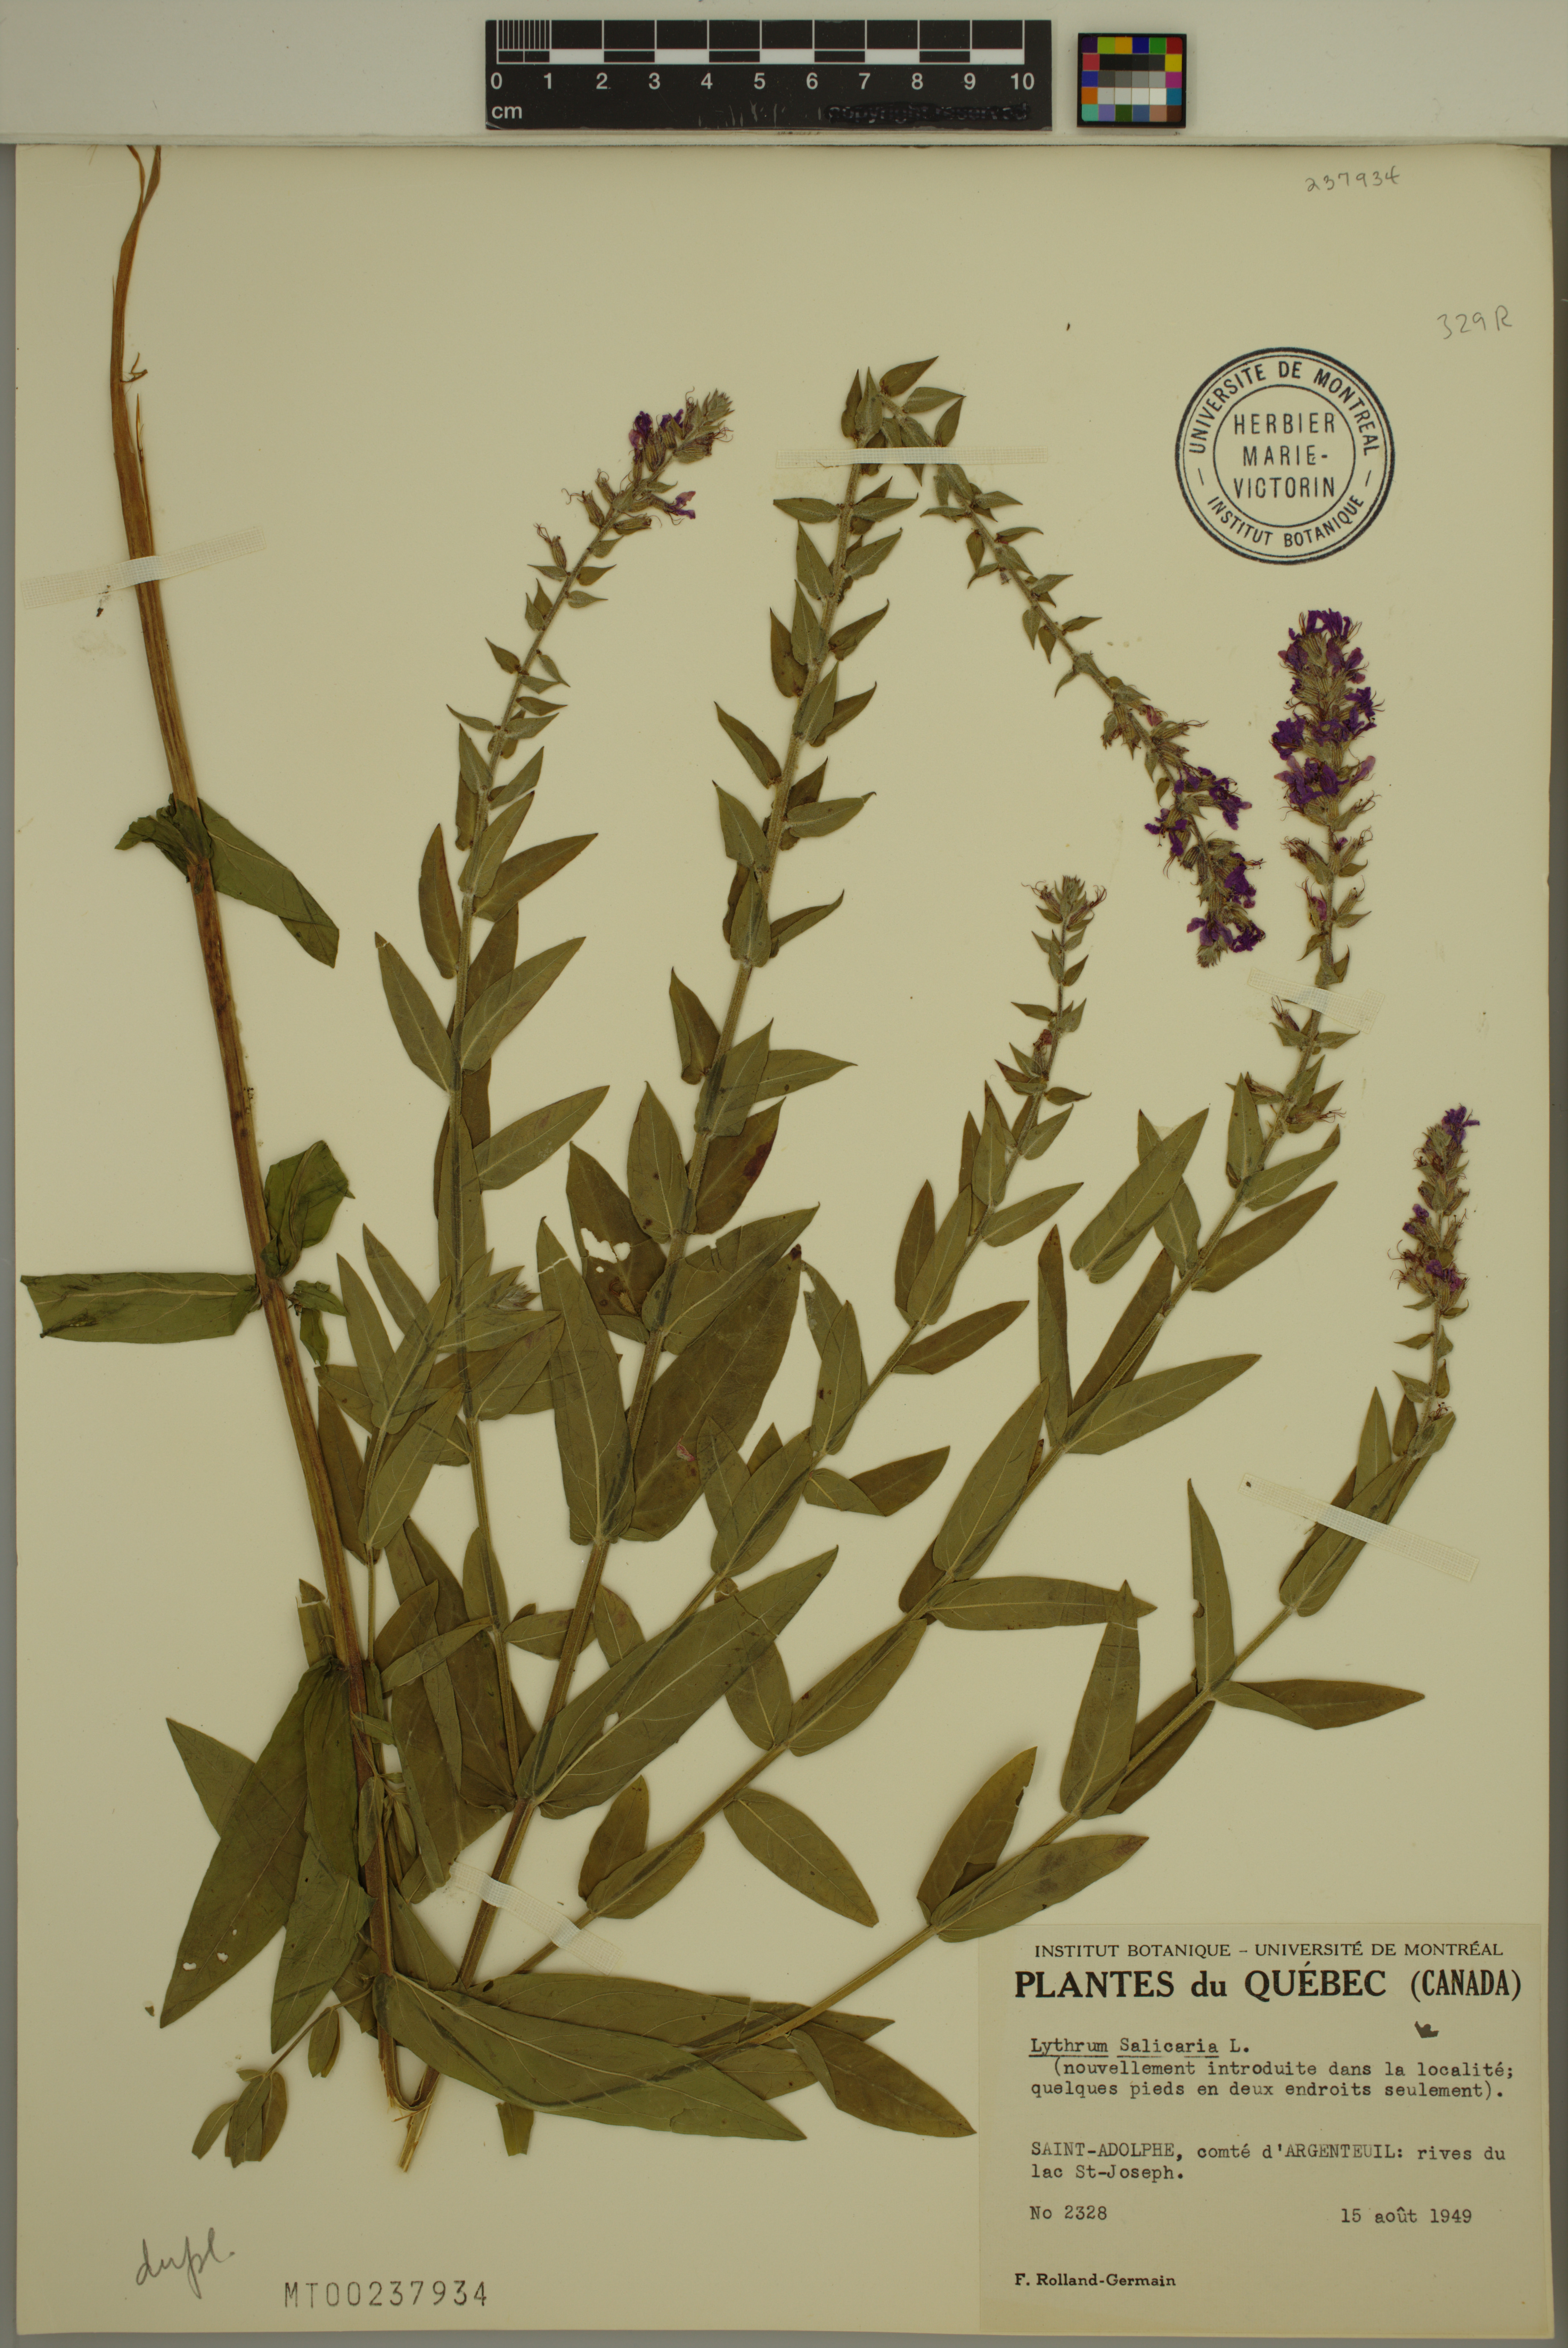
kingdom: Plantae
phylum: Tracheophyta
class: Magnoliopsida
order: Myrtales
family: Lythraceae
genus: Lythrum
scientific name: Lythrum salicaria
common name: Purple loosestrife
